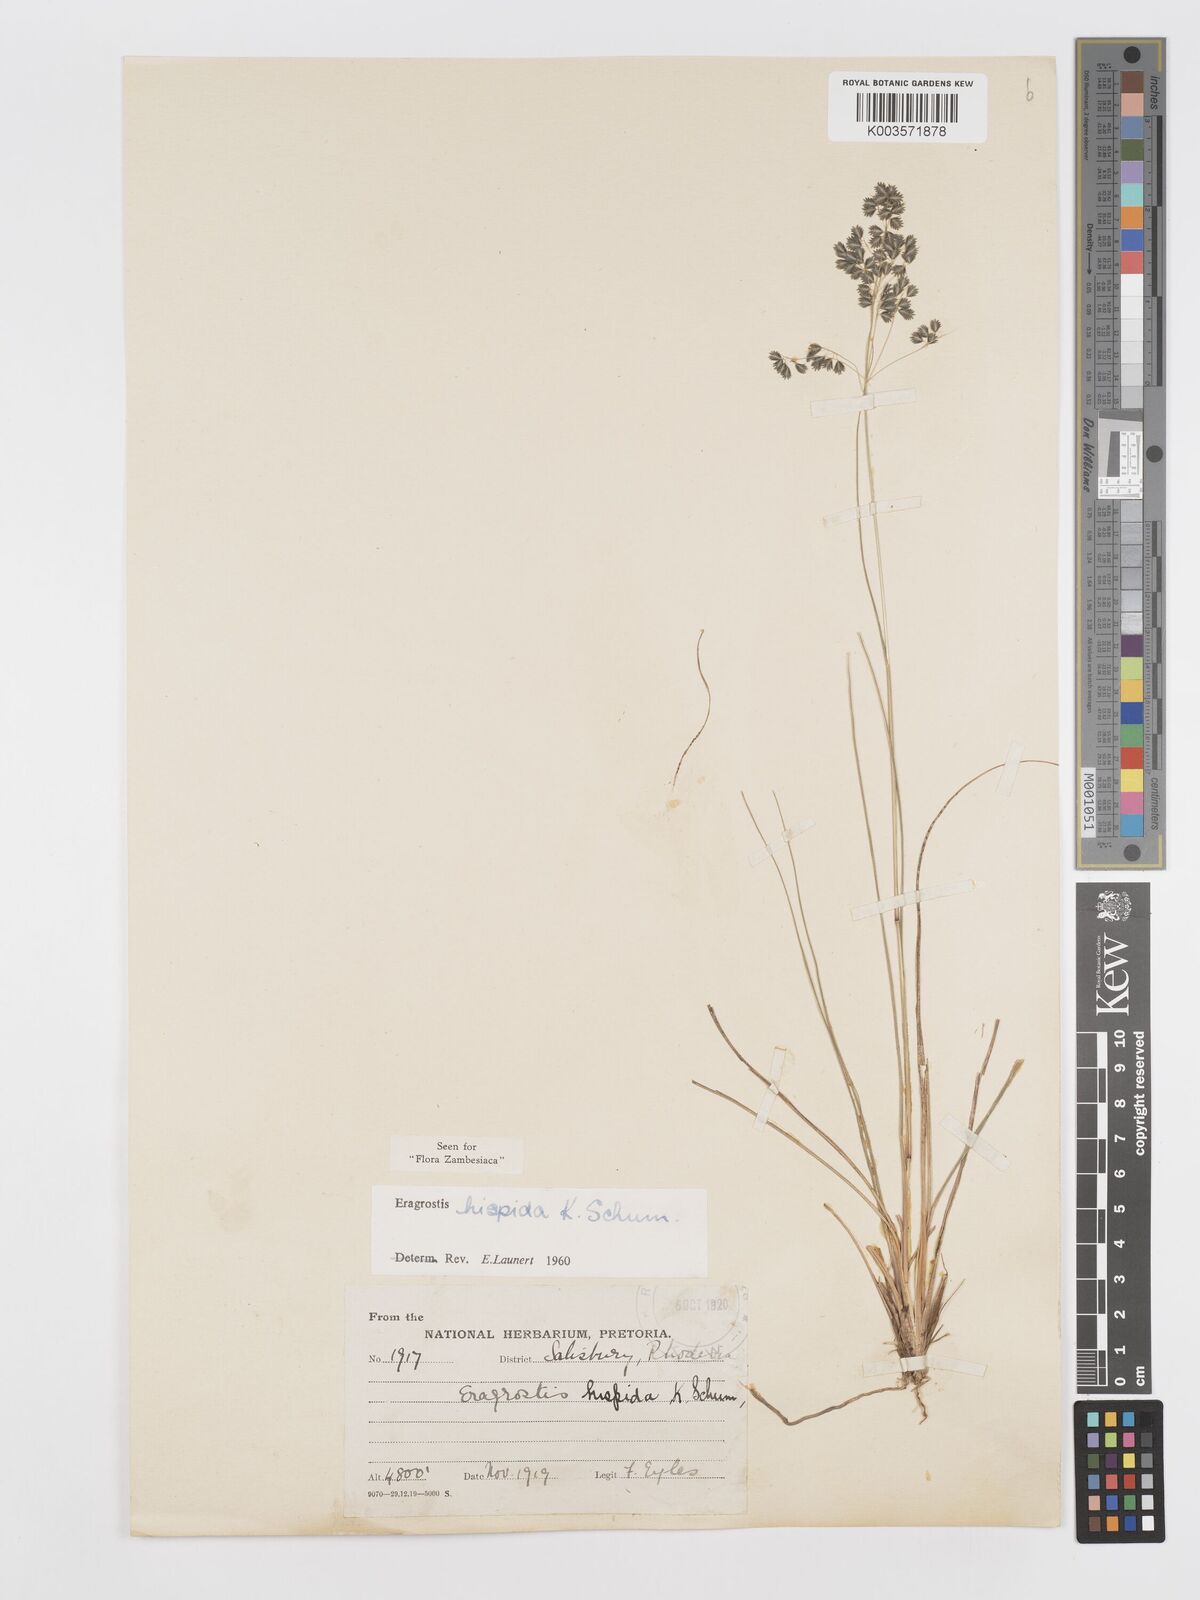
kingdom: Plantae
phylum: Tracheophyta
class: Liliopsida
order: Poales
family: Poaceae
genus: Eragrostis
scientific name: Eragrostis hispida
